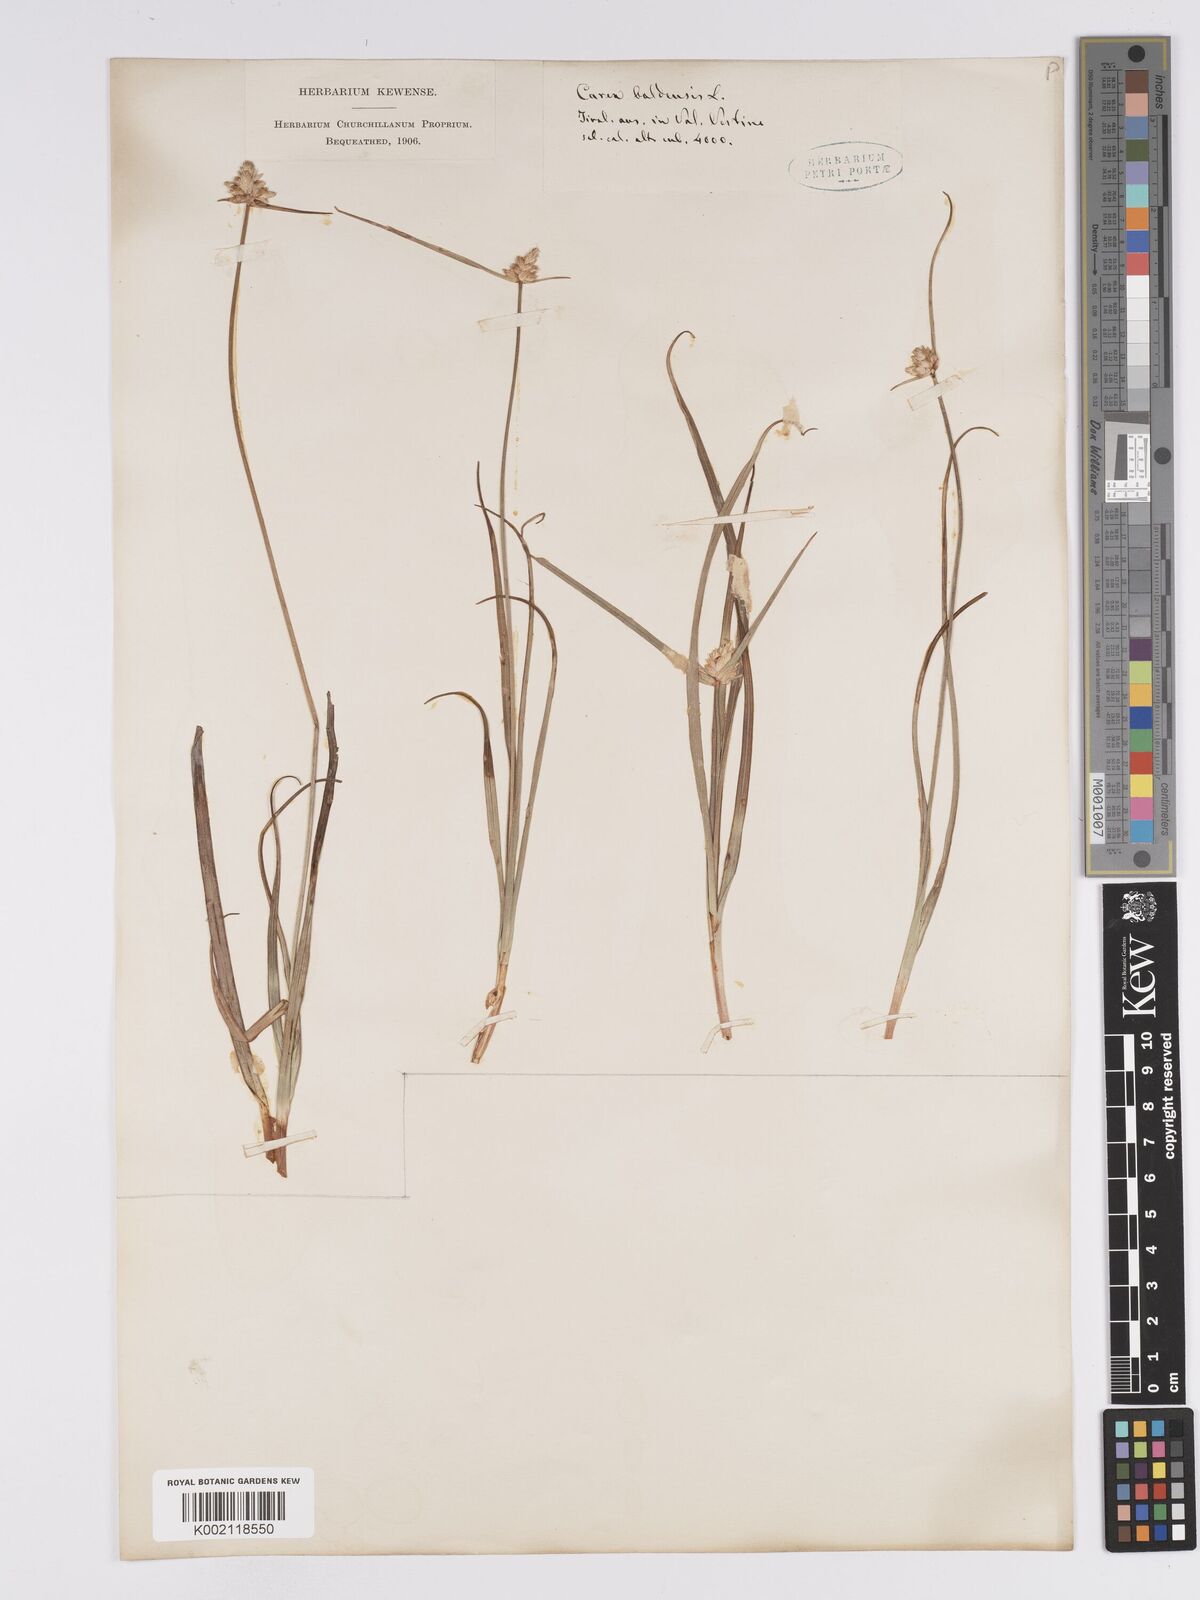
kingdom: Plantae
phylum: Tracheophyta
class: Liliopsida
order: Poales
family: Cyperaceae
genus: Carex
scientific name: Carex baldensis
